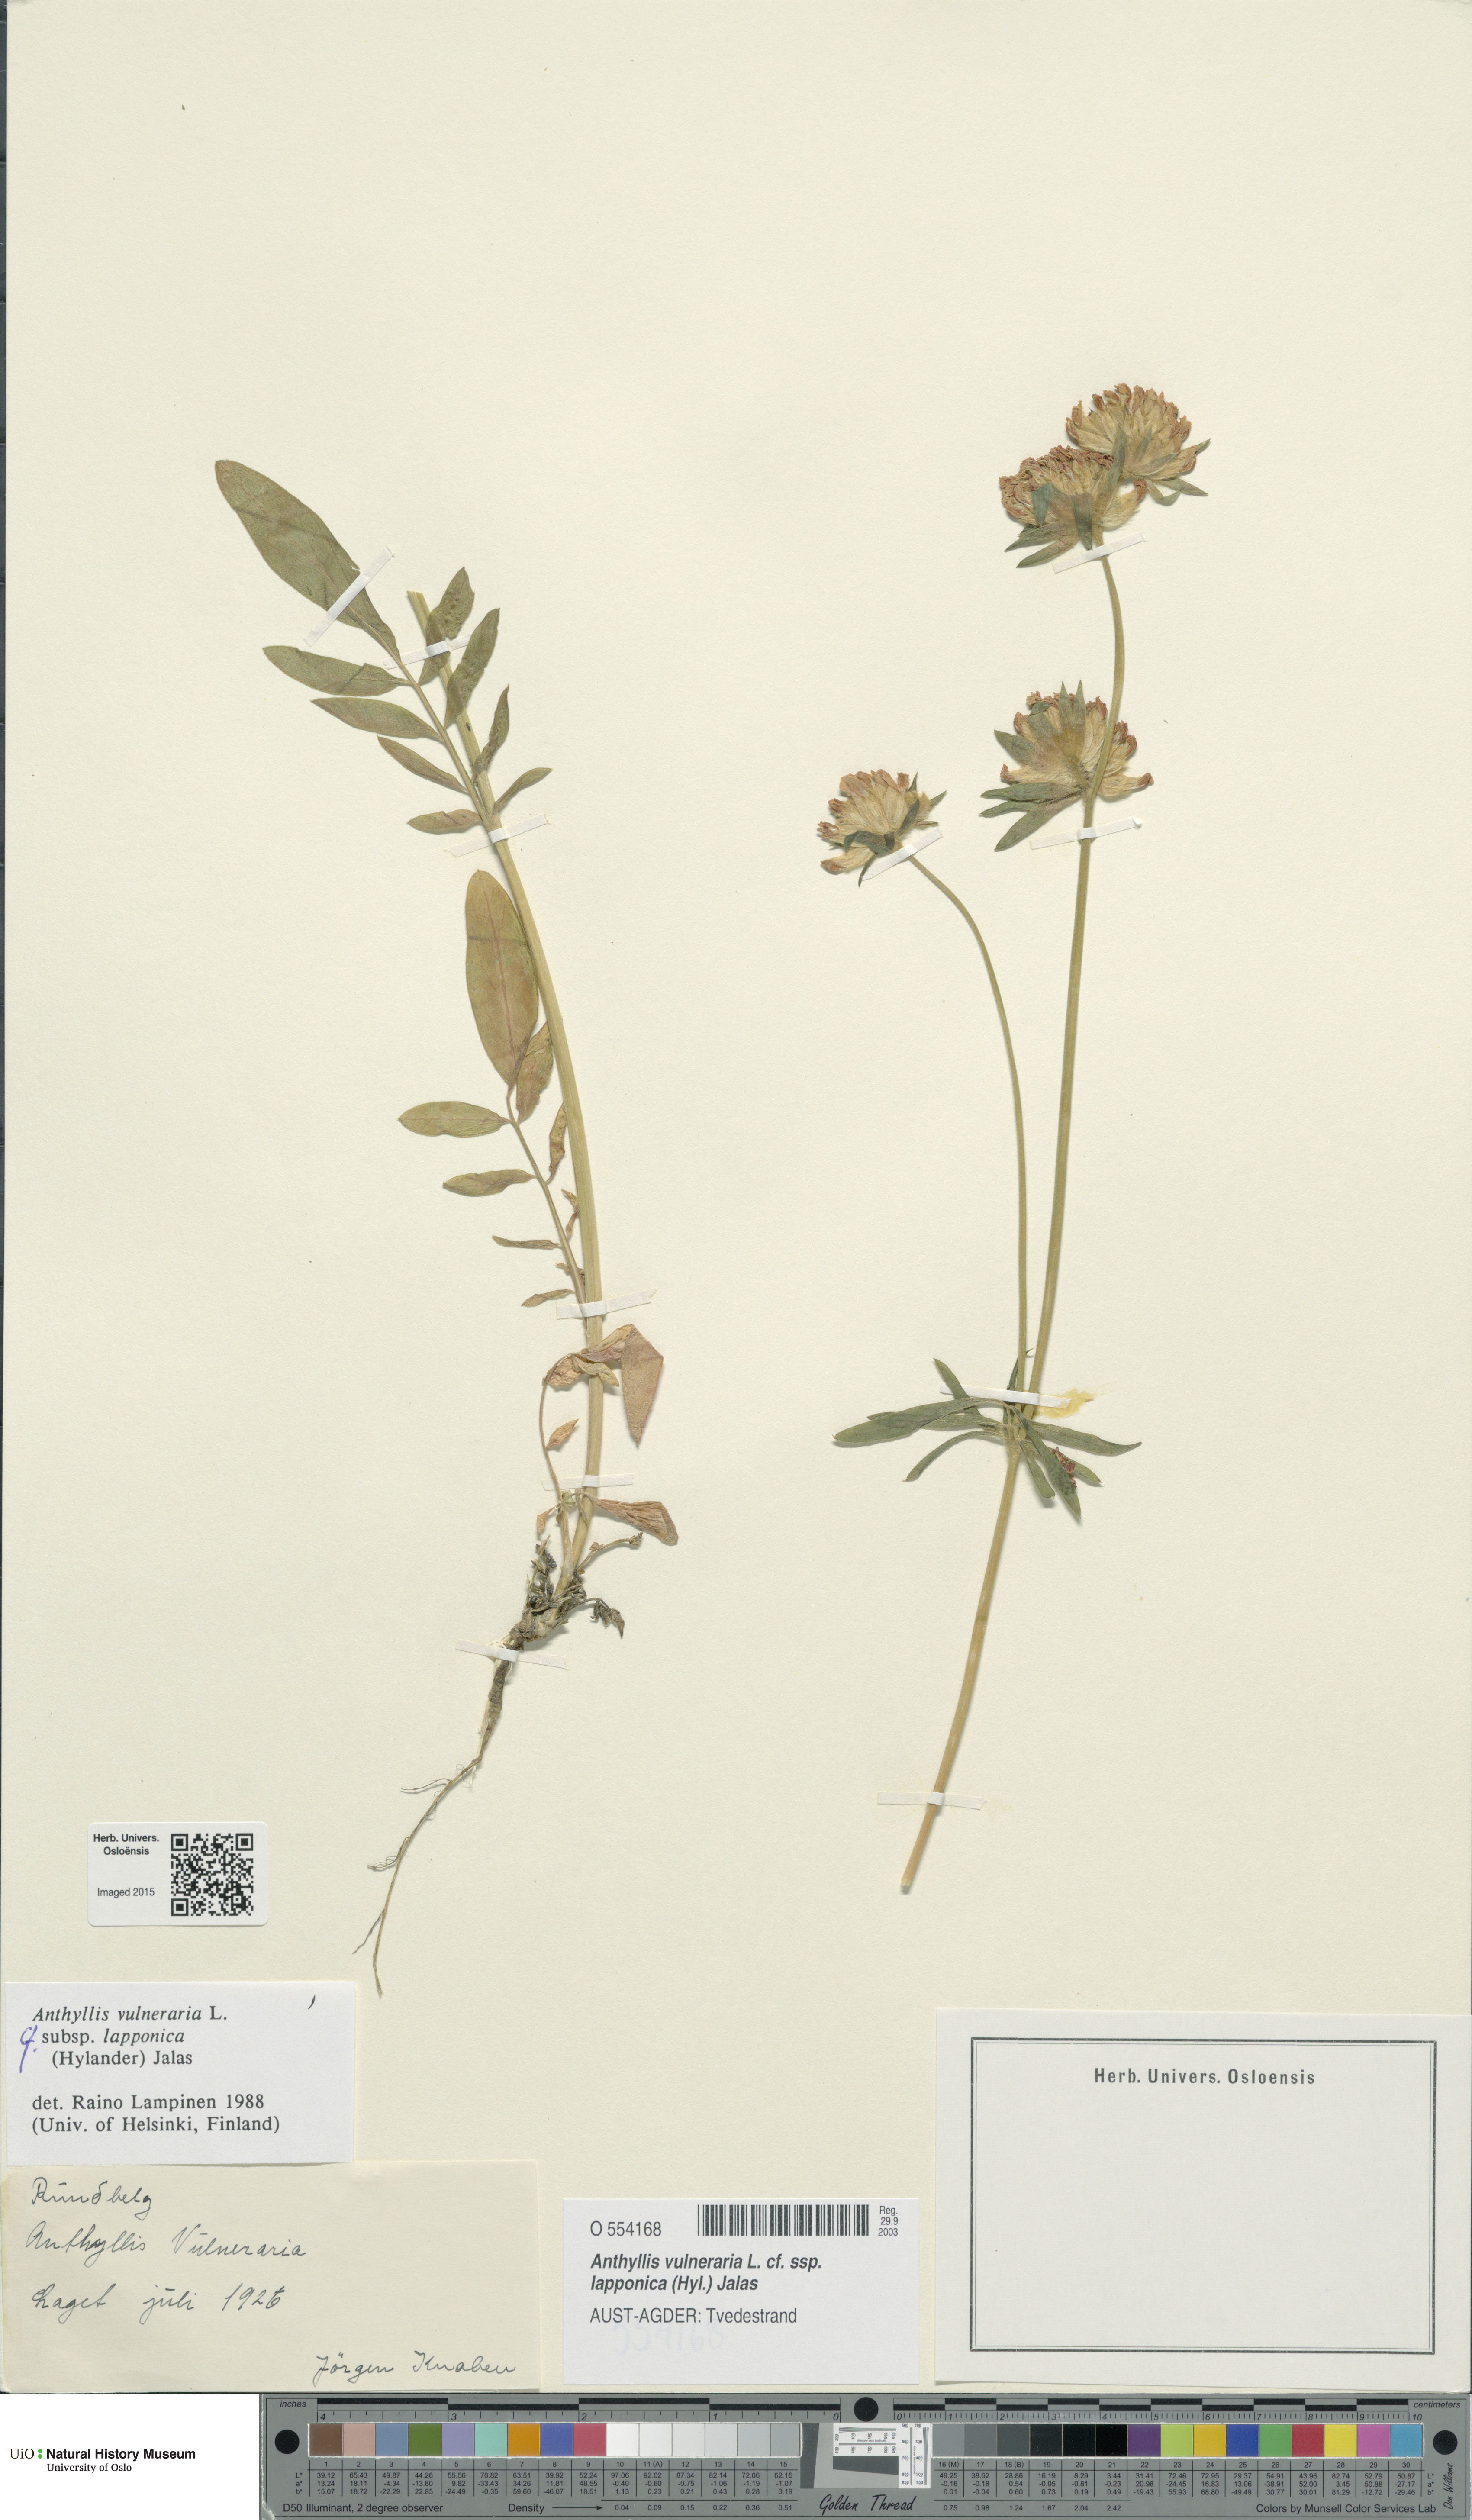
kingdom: Plantae
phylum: Tracheophyta
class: Magnoliopsida
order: Fabales
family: Fabaceae
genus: Anthyllis
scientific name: Anthyllis vulneraria
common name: Kidney vetch
